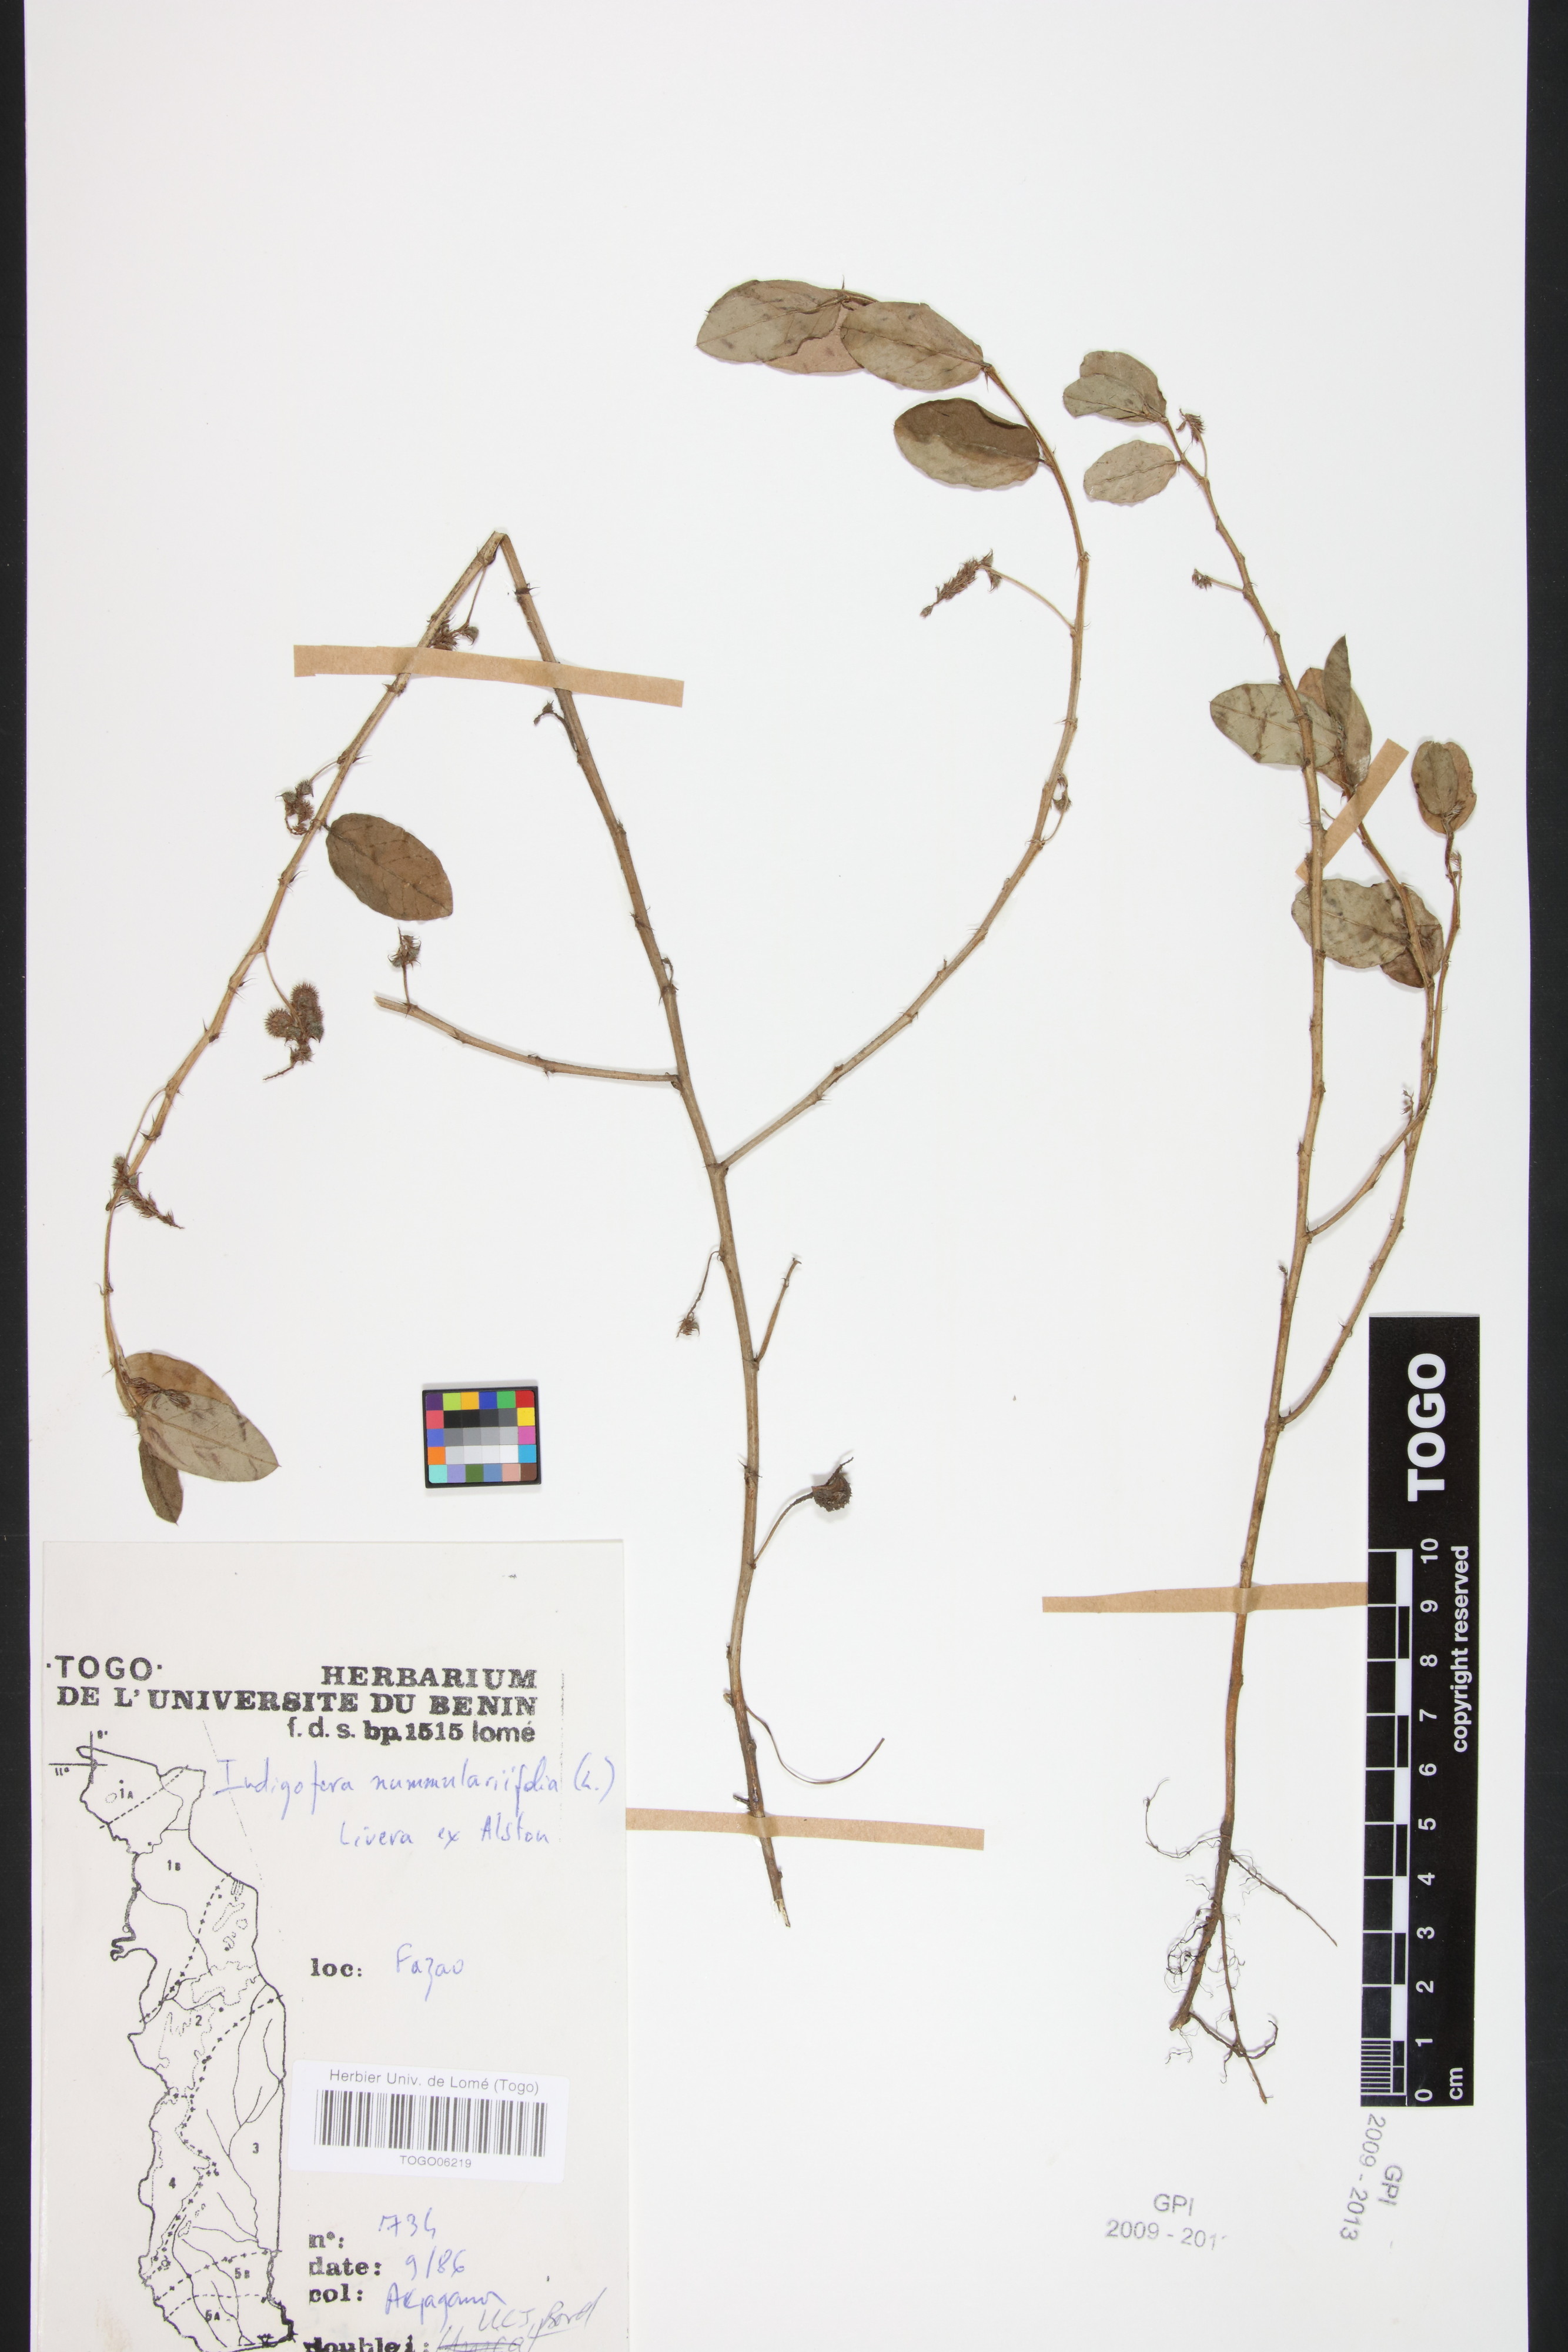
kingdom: Plantae
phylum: Tracheophyta
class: Magnoliopsida
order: Fabales
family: Fabaceae
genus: Indigofera
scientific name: Indigofera nummulariifolia
